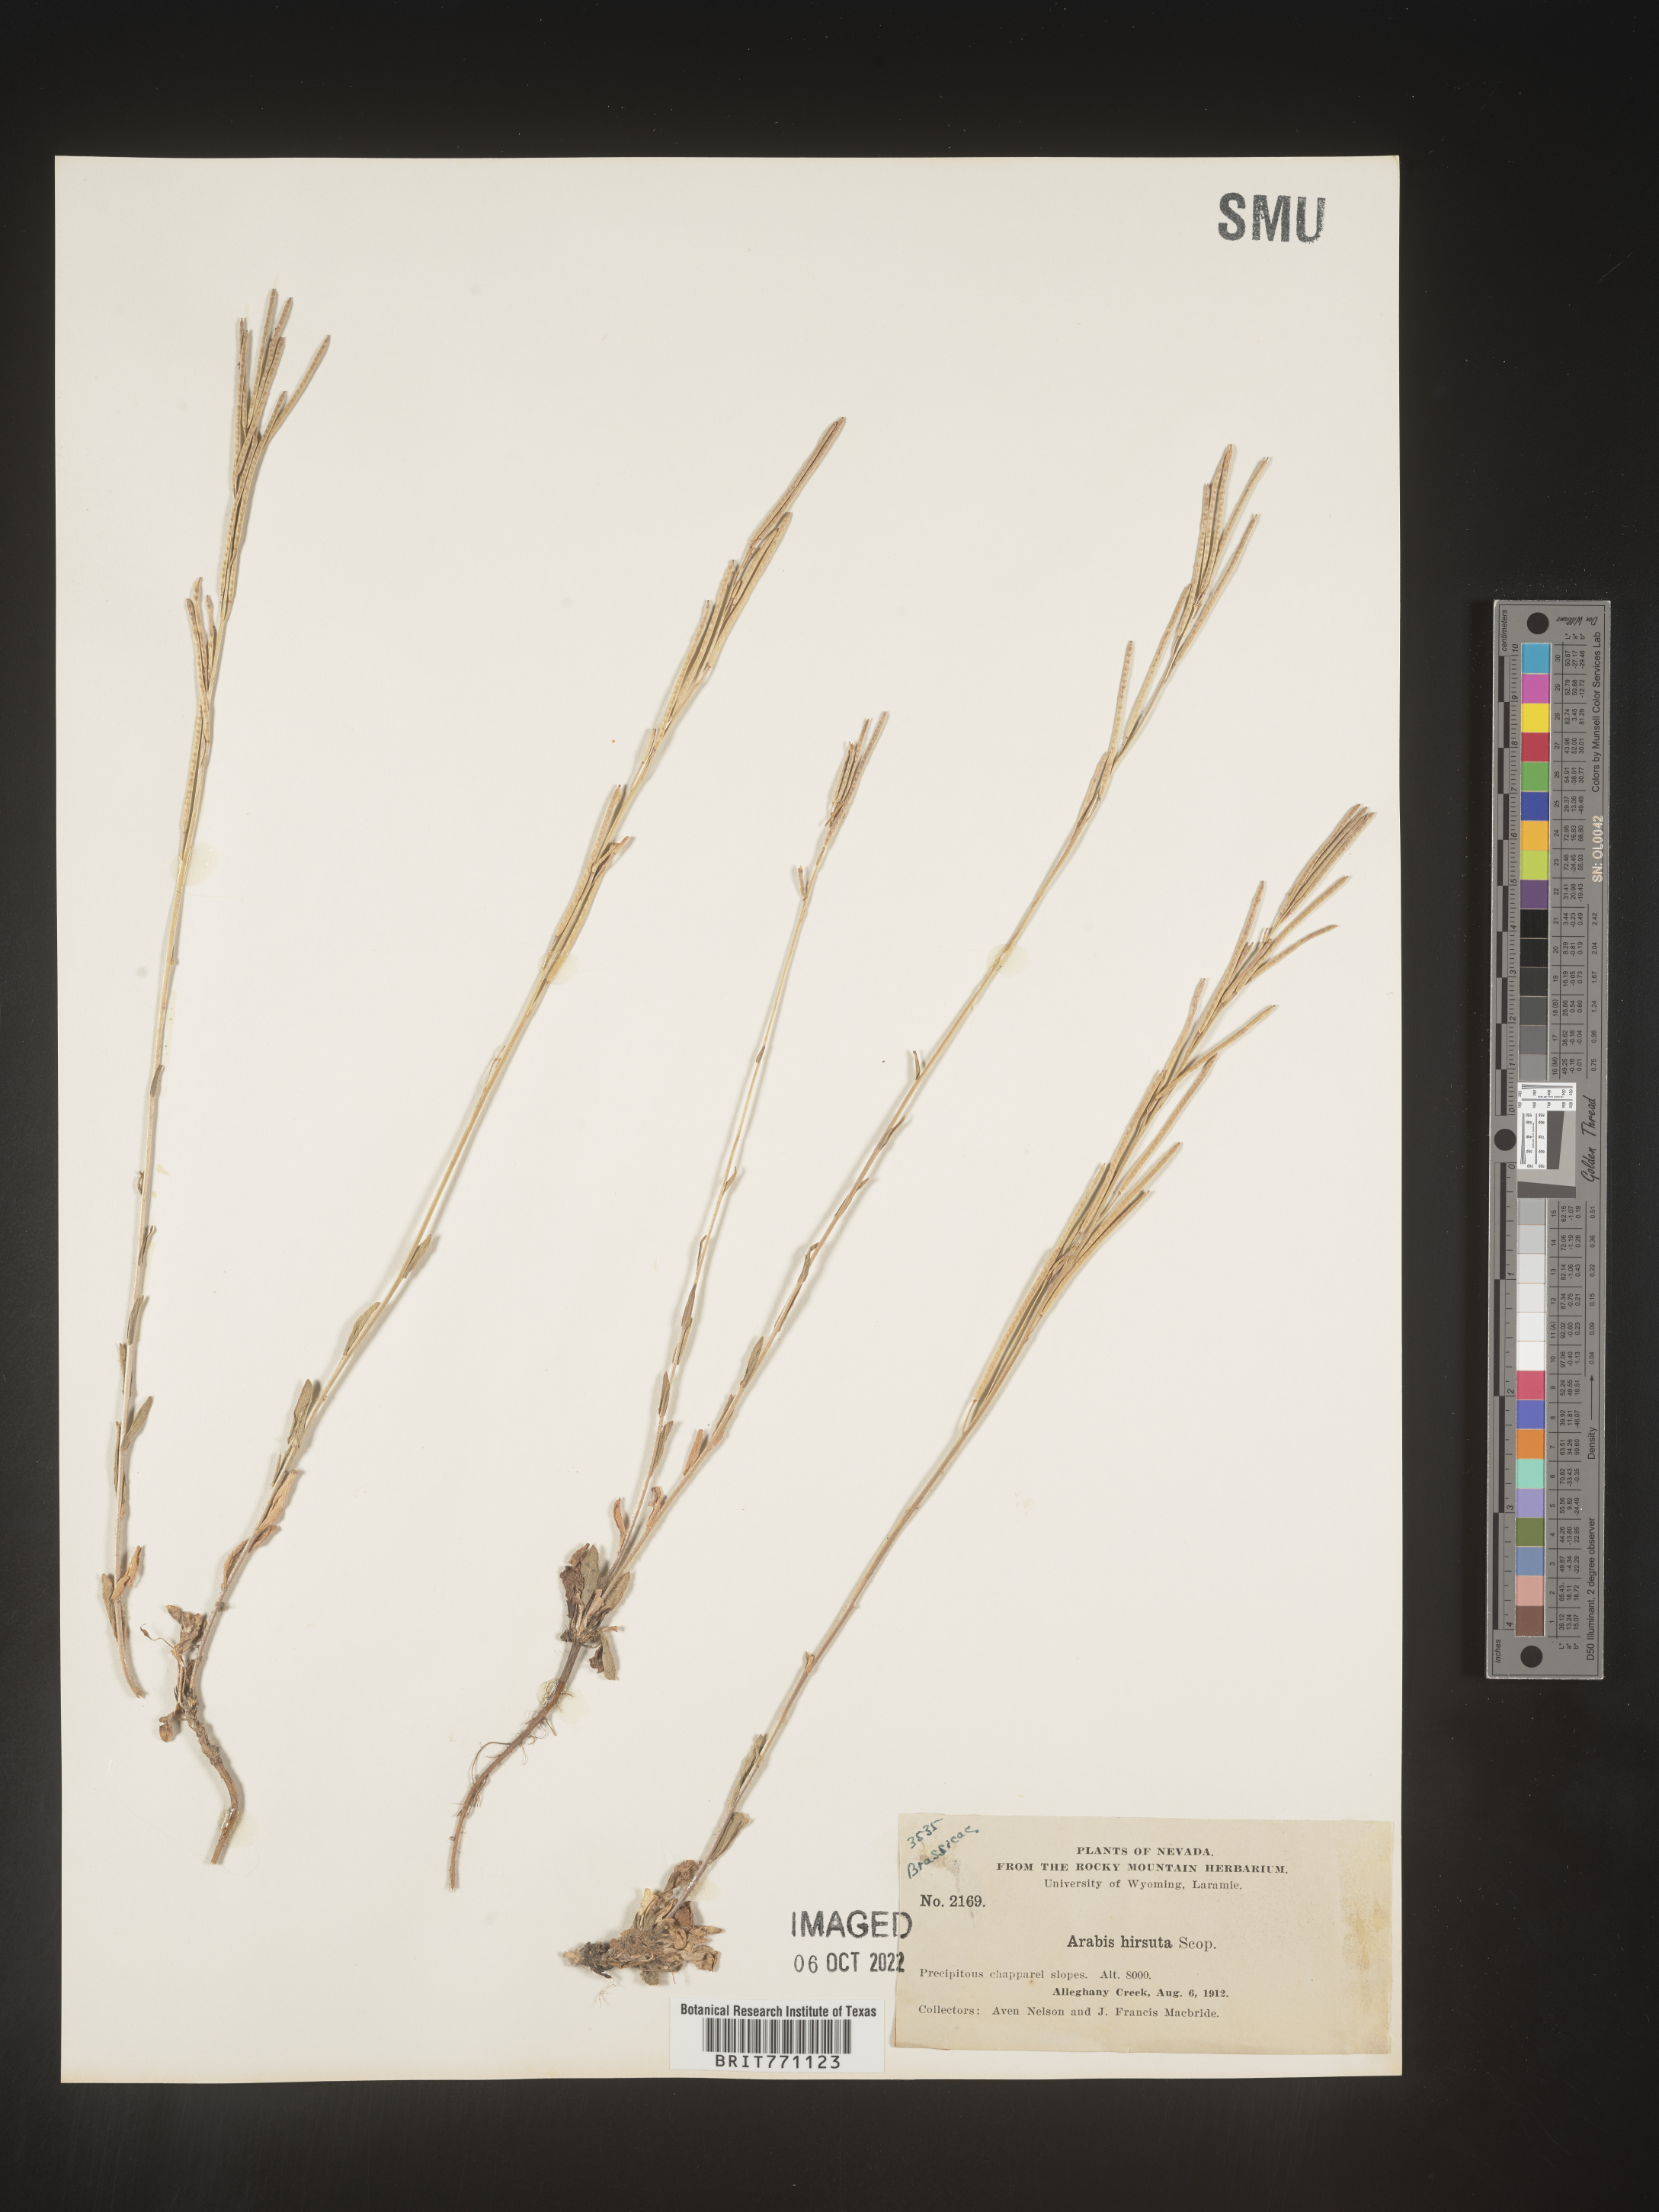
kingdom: Plantae
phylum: Tracheophyta
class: Magnoliopsida
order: Brassicales
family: Brassicaceae
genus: Arabis
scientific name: Arabis hirsuta
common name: Hairy rock-cress
